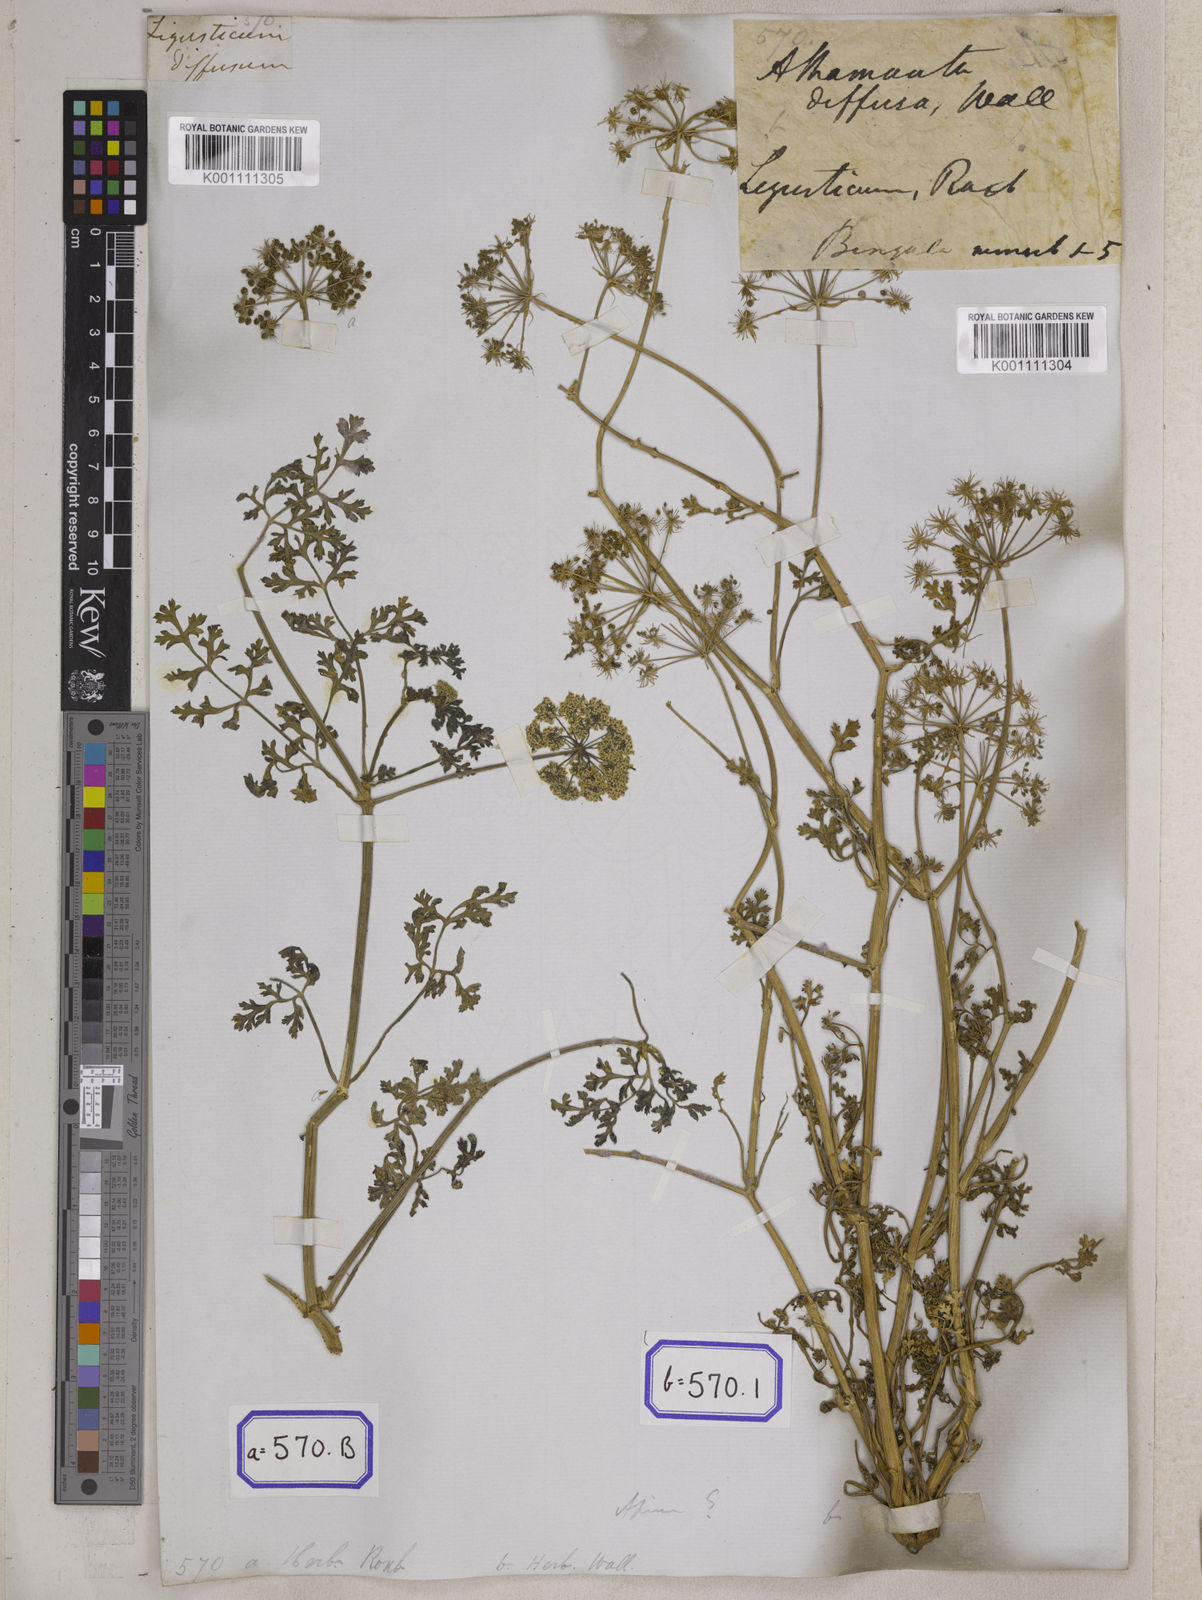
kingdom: Plantae
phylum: Tracheophyta
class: Magnoliopsida
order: Apiales
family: Apiaceae
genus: Athamanta
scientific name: Athamanta
